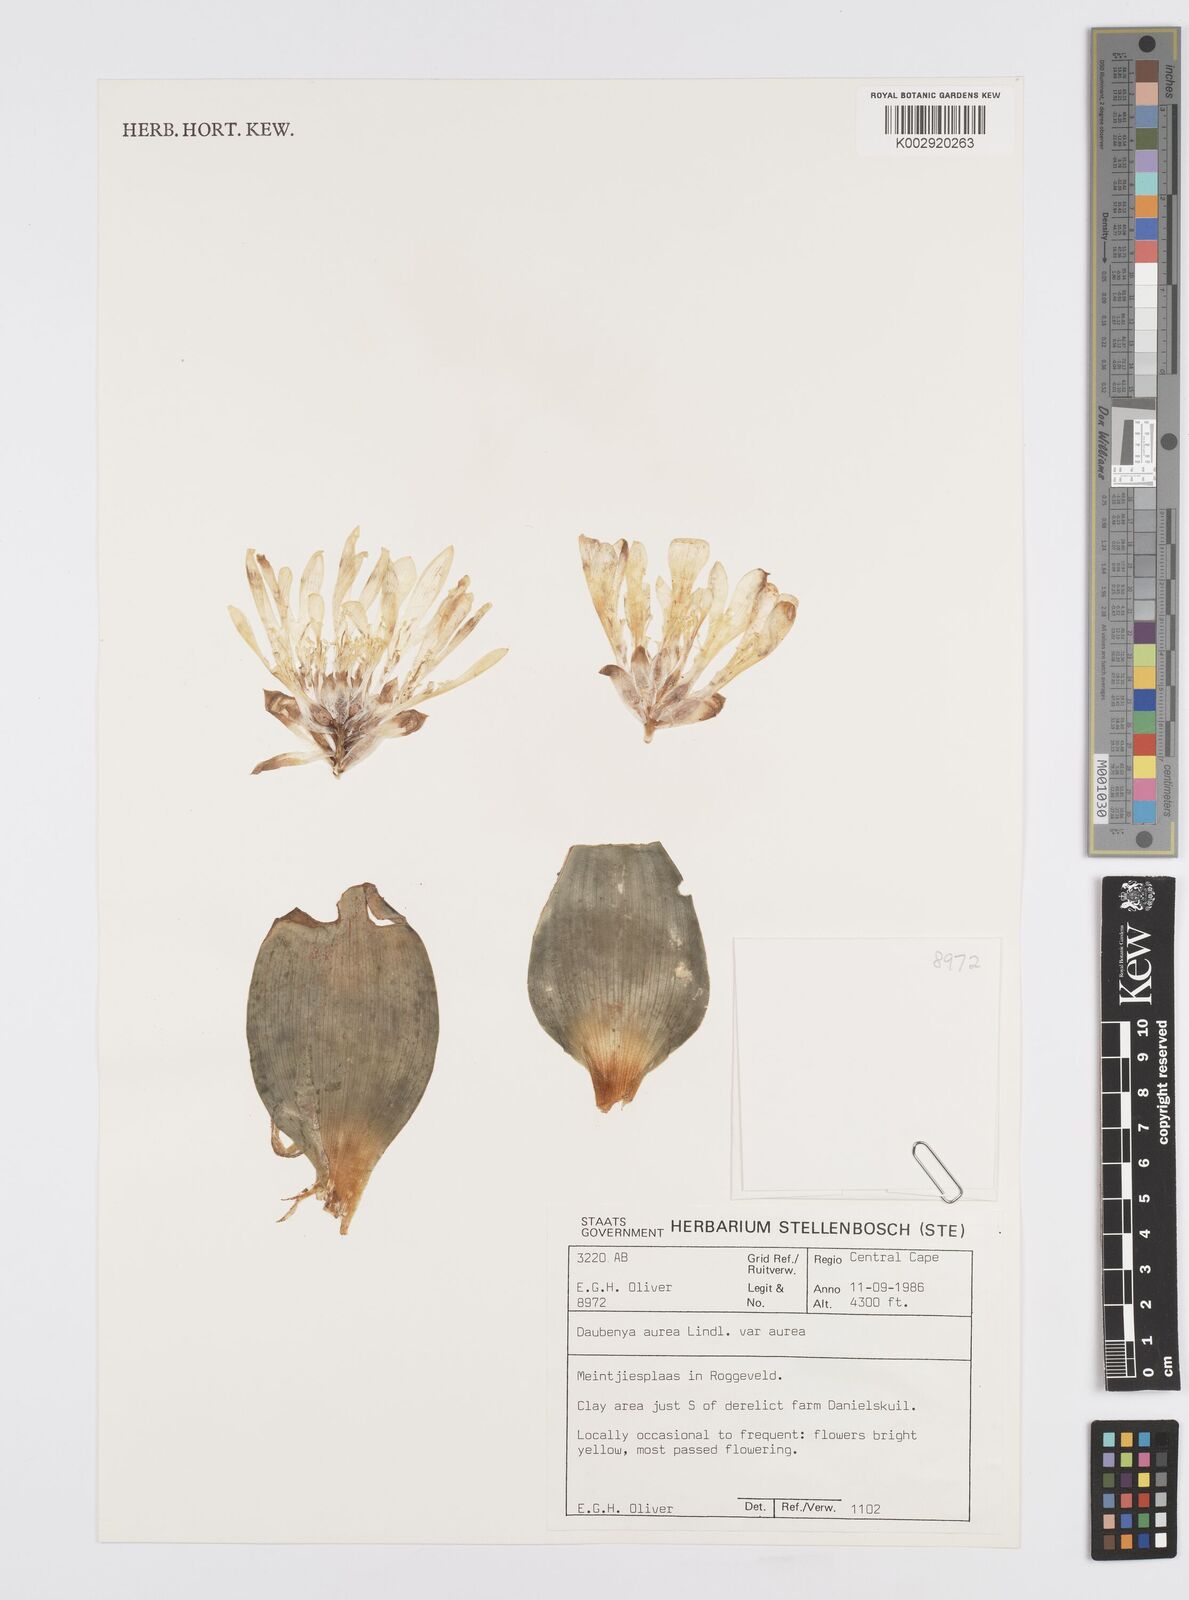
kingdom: Plantae
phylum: Tracheophyta
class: Liliopsida
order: Asparagales
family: Asparagaceae
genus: Daubenya
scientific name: Daubenya aurea
